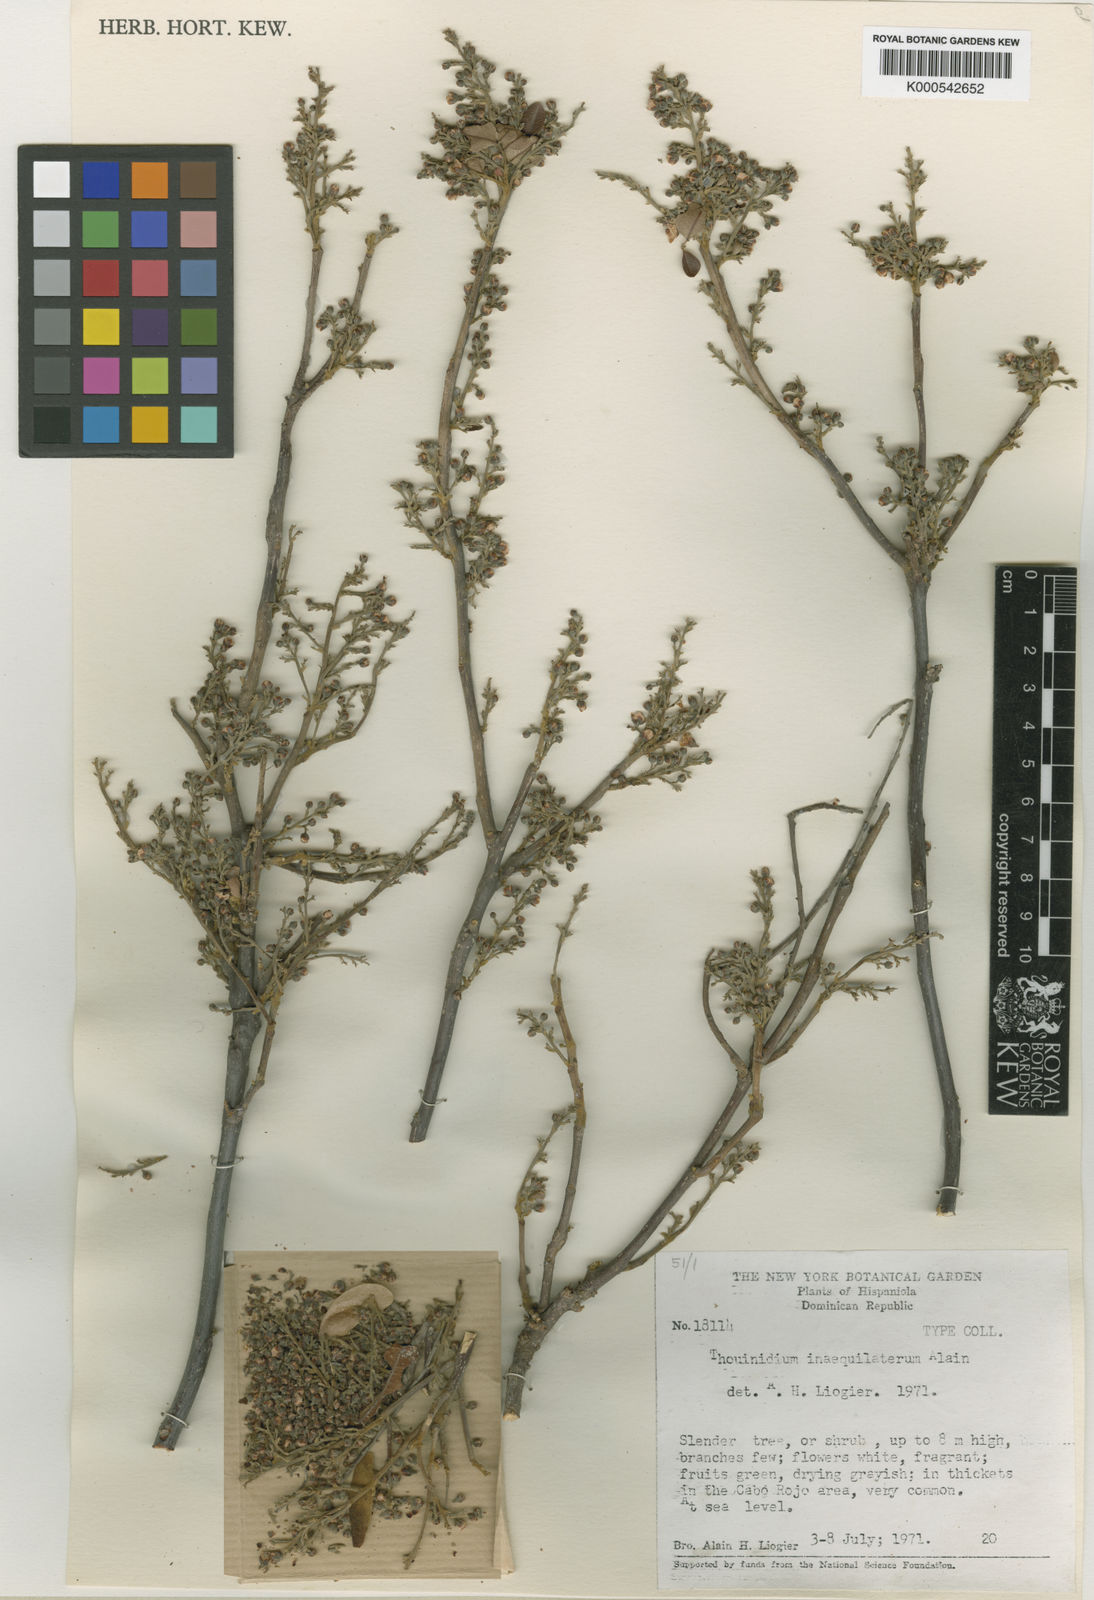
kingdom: Plantae
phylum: Tracheophyta
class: Magnoliopsida
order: Sapindales
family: Sapindaceae
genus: Thouinidium
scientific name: Thouinidium inaequilaterum
